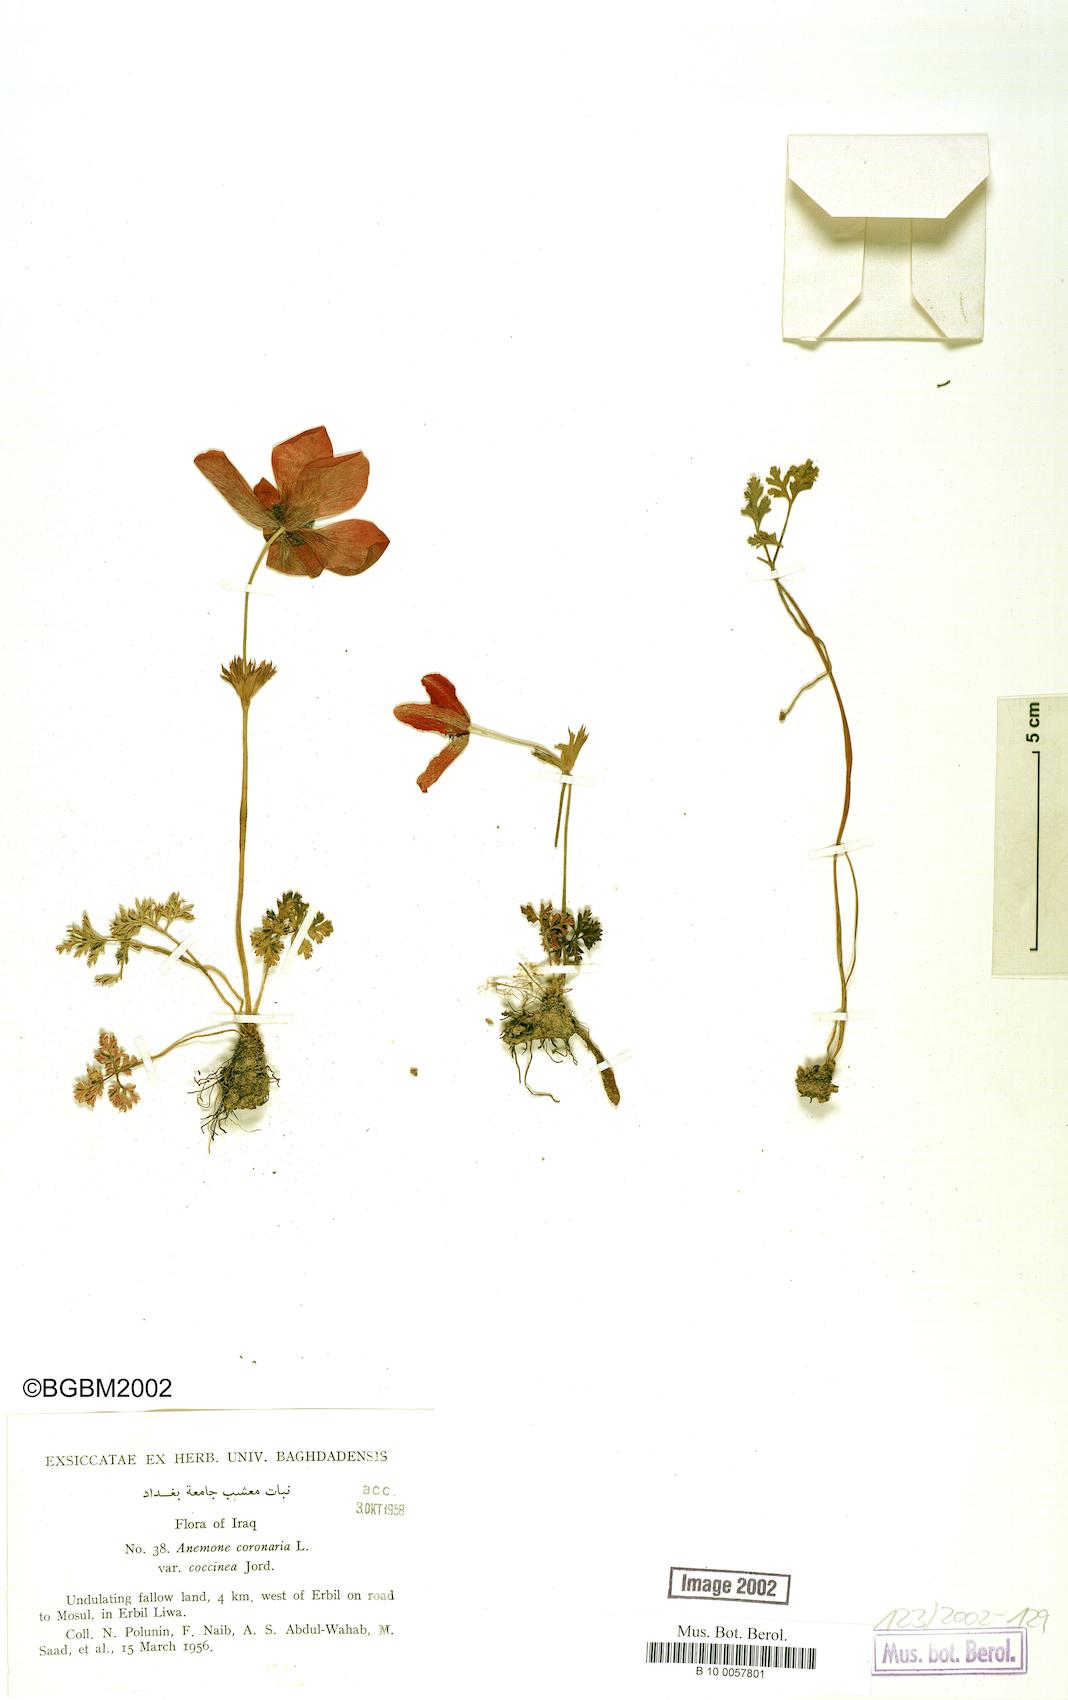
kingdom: Plantae
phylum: Tracheophyta
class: Magnoliopsida
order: Ranunculales
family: Ranunculaceae
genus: Anemone
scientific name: Anemone coronaria
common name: Poppy anemone
